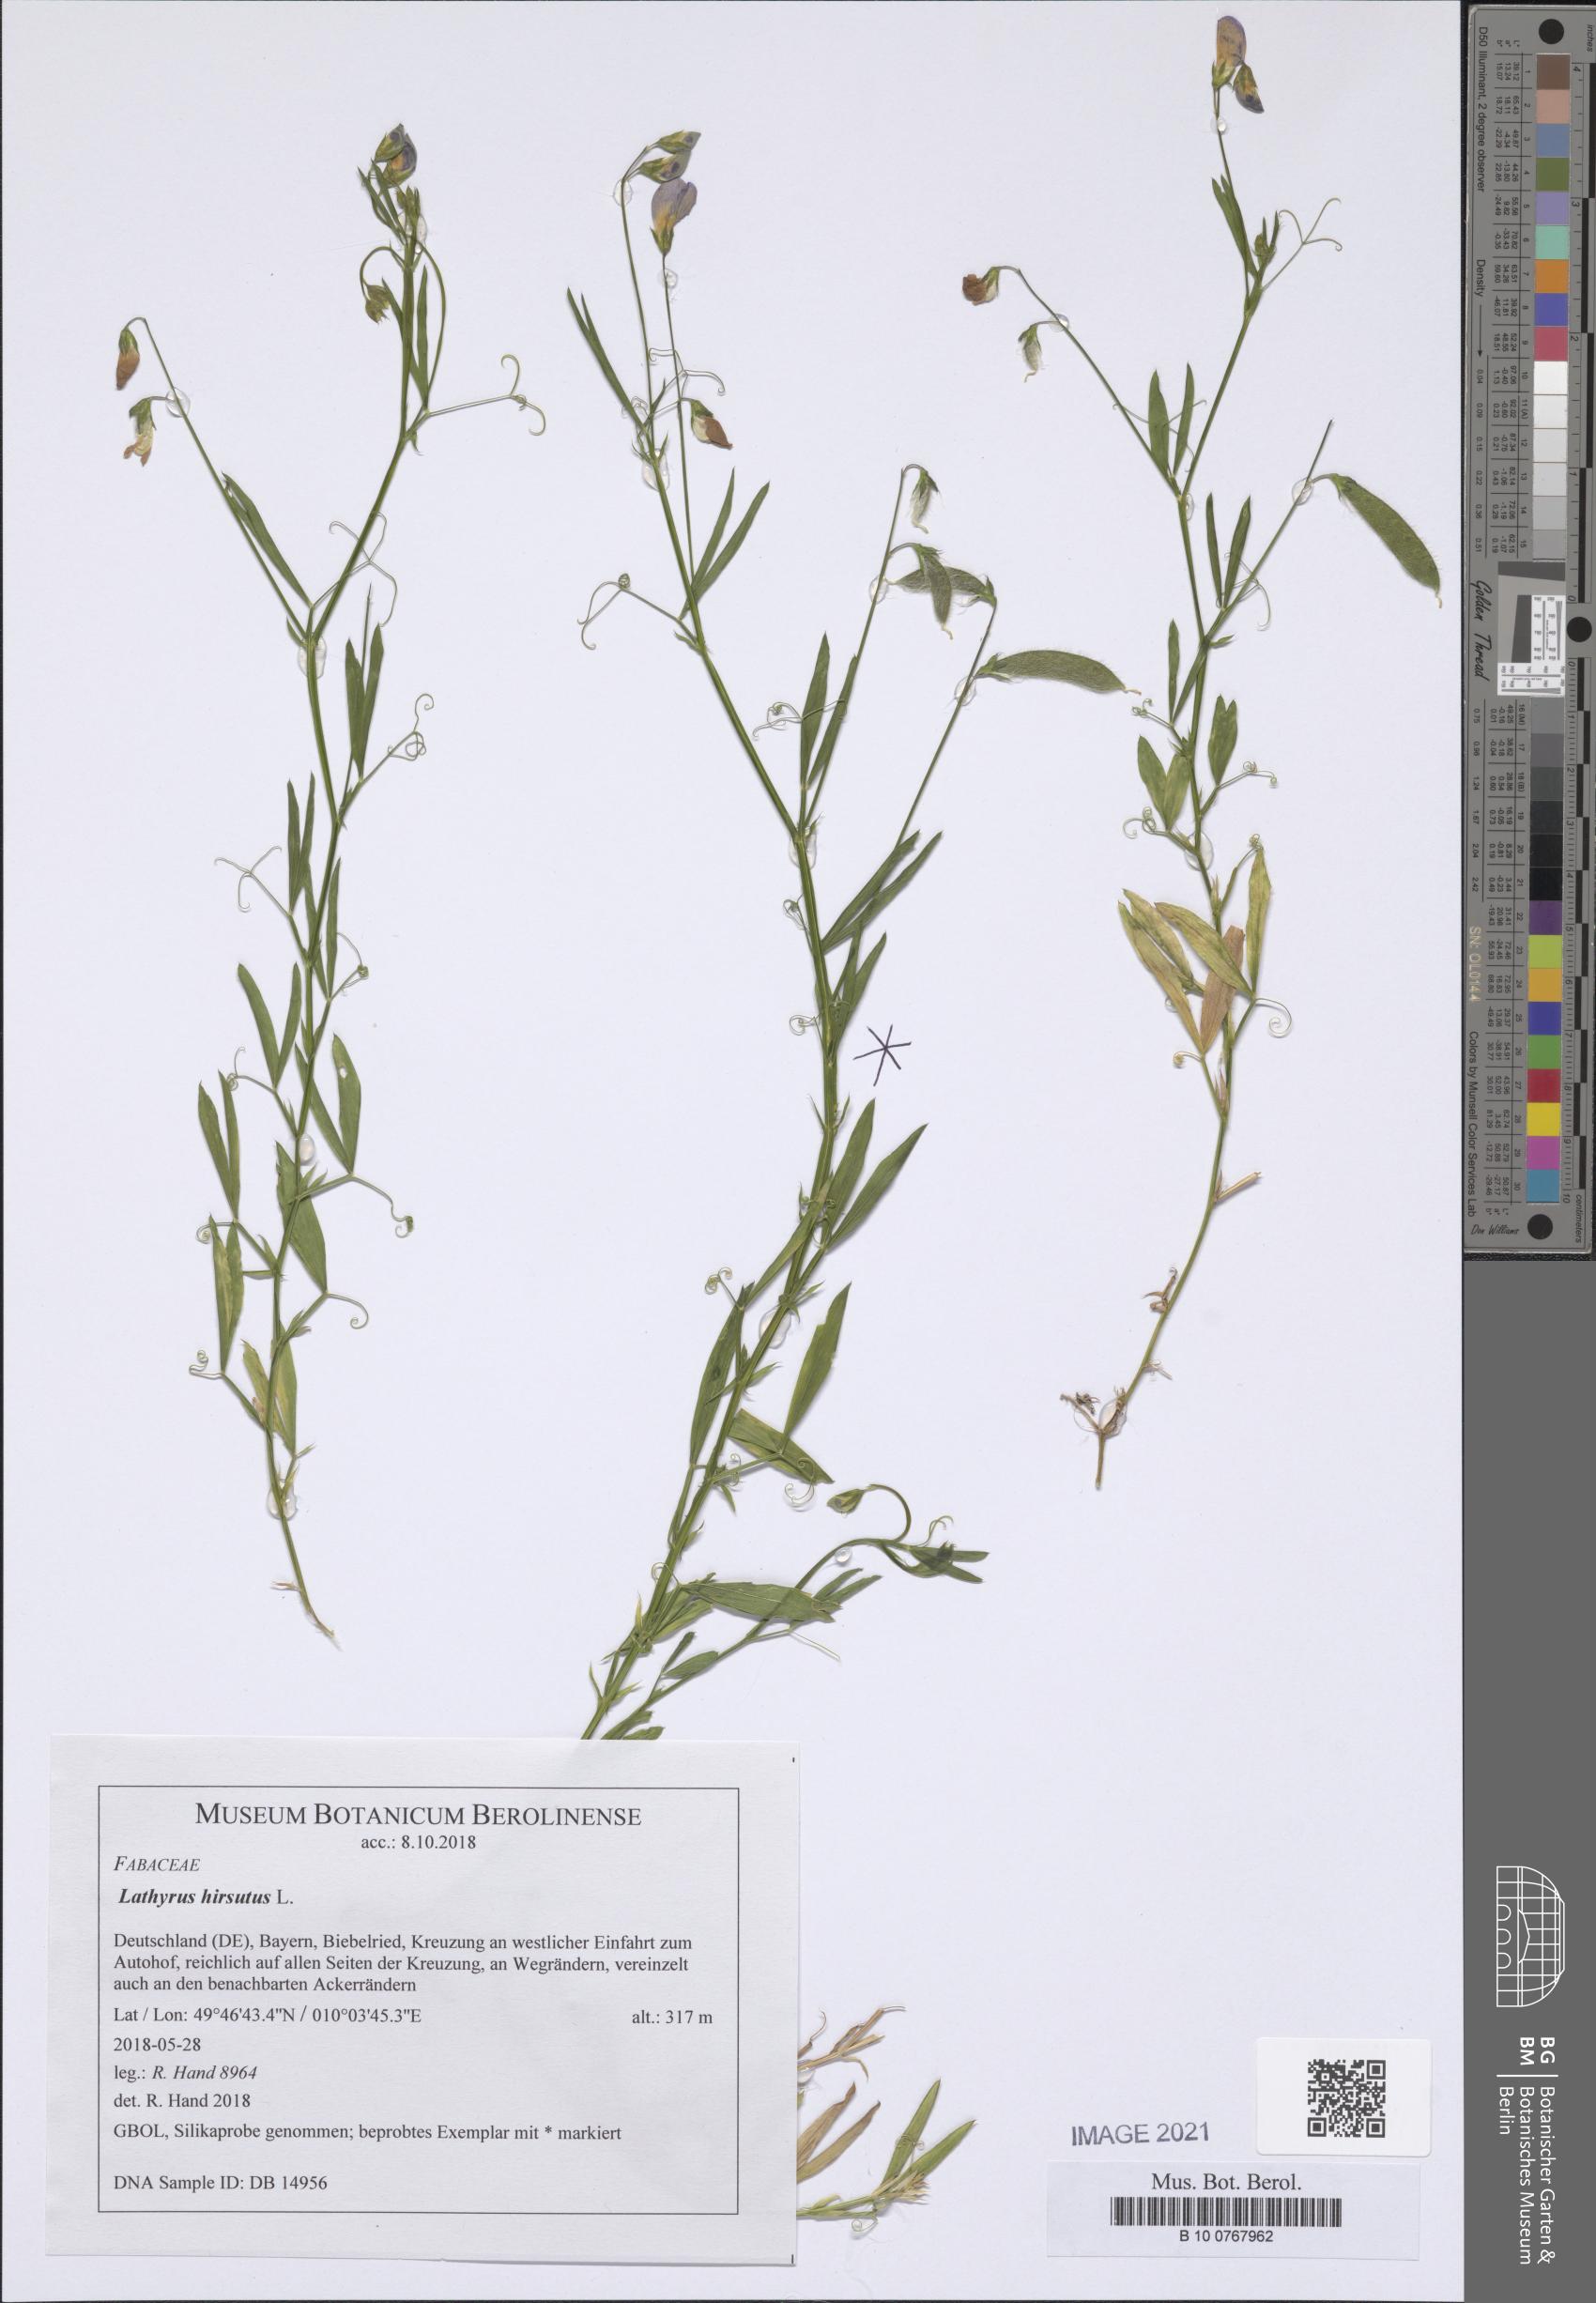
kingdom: Plantae
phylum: Tracheophyta
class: Magnoliopsida
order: Fabales
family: Fabaceae
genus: Lathyrus
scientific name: Lathyrus hirsutus
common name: Hairy vetchling
